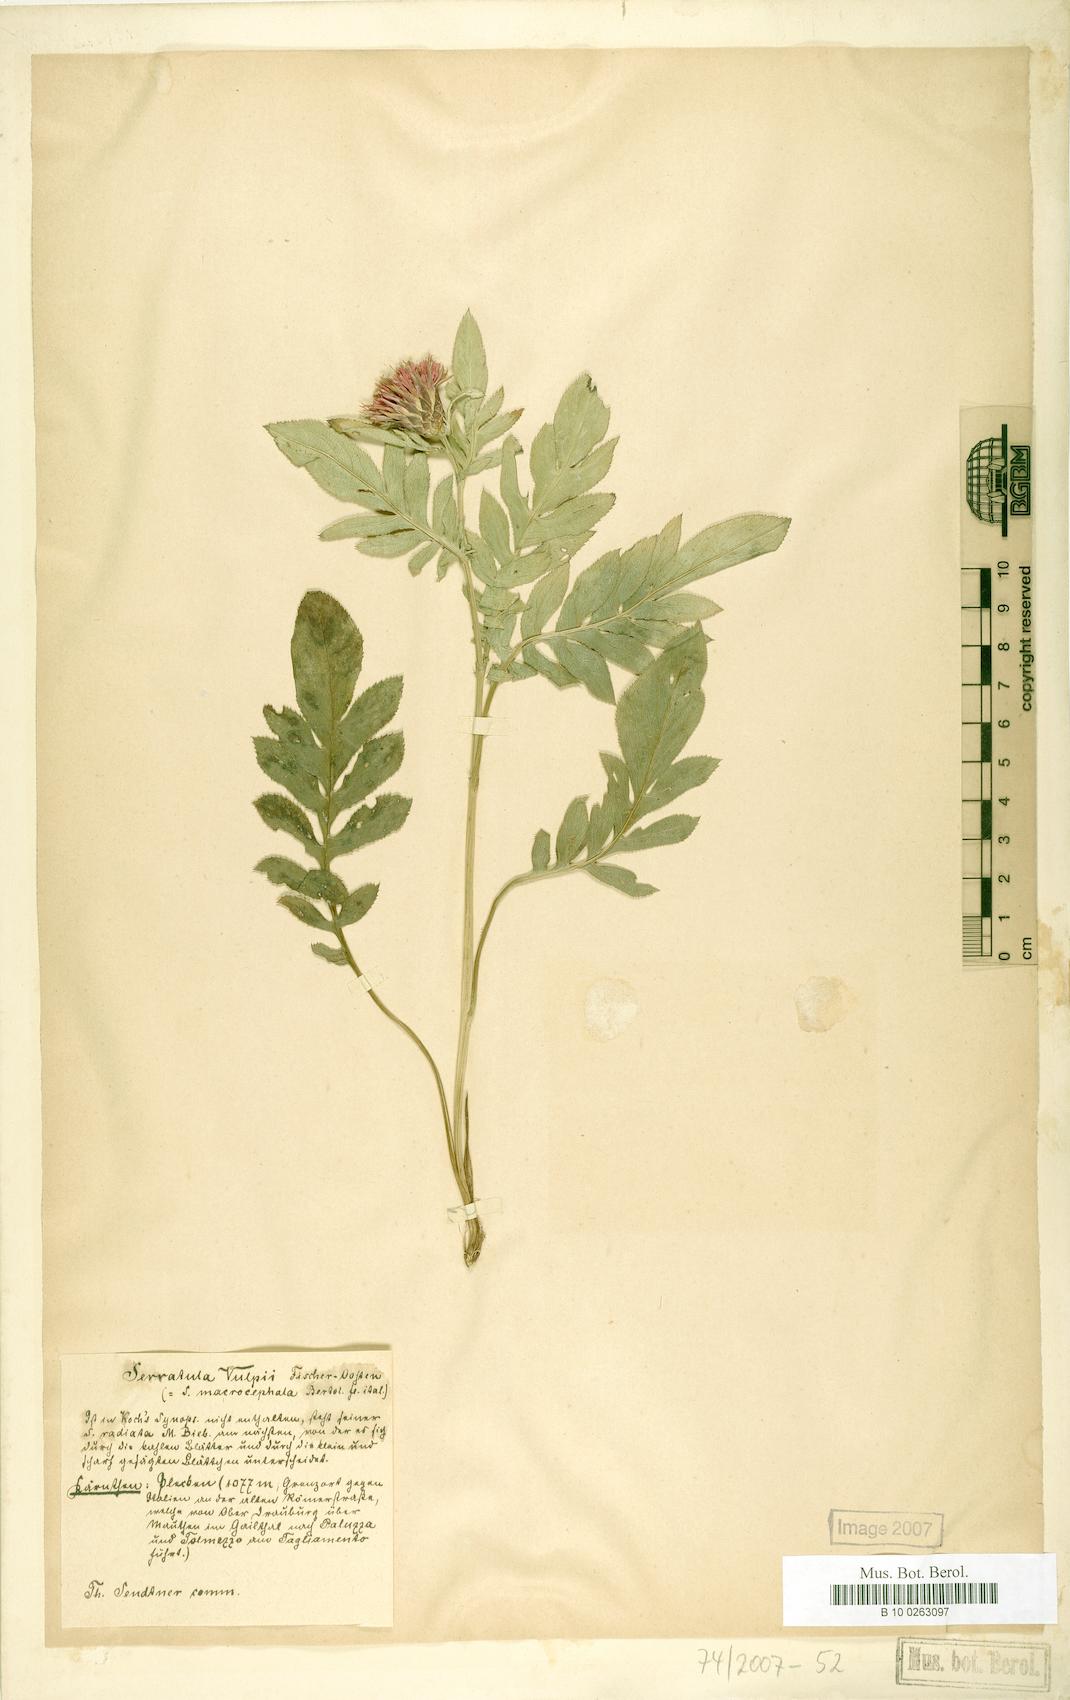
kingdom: Plantae
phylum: Tracheophyta
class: Magnoliopsida
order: Asterales
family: Asteraceae
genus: Serratula
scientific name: Serratula tinctoria
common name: Saw-wort
